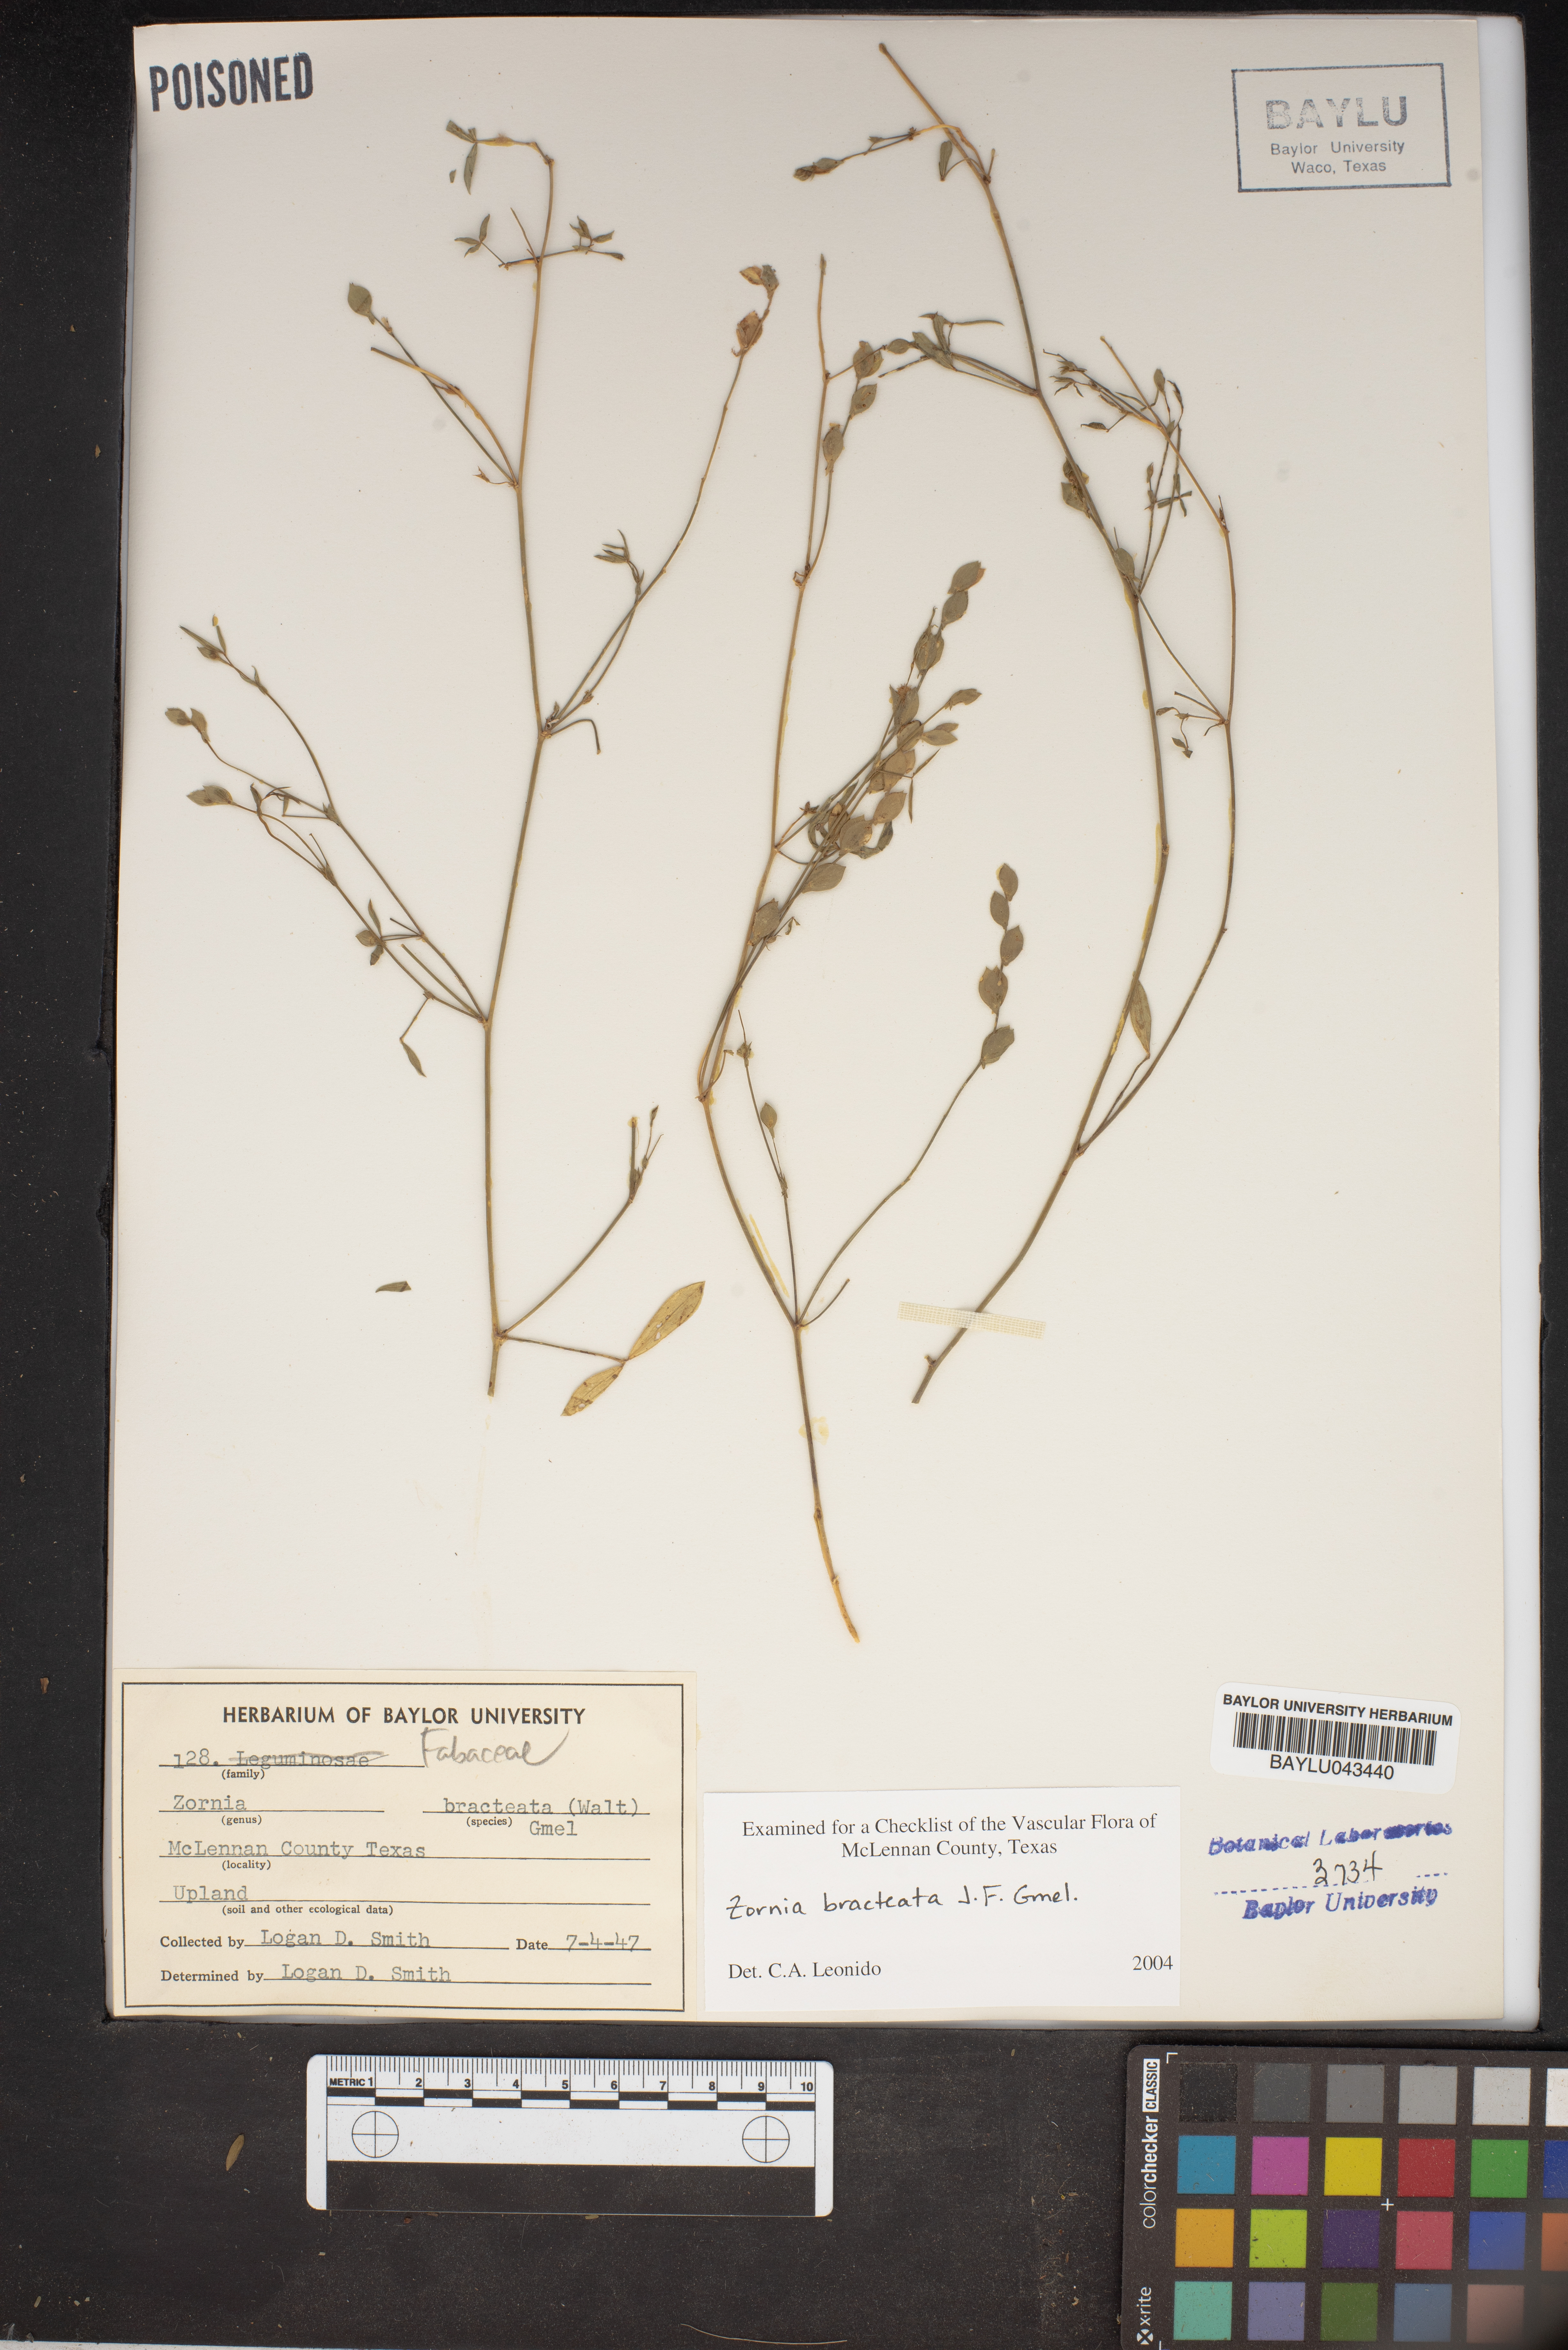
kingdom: Plantae
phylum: Tracheophyta
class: Magnoliopsida
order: Fabales
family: Fabaceae
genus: Zornia
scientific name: Zornia bracteata
